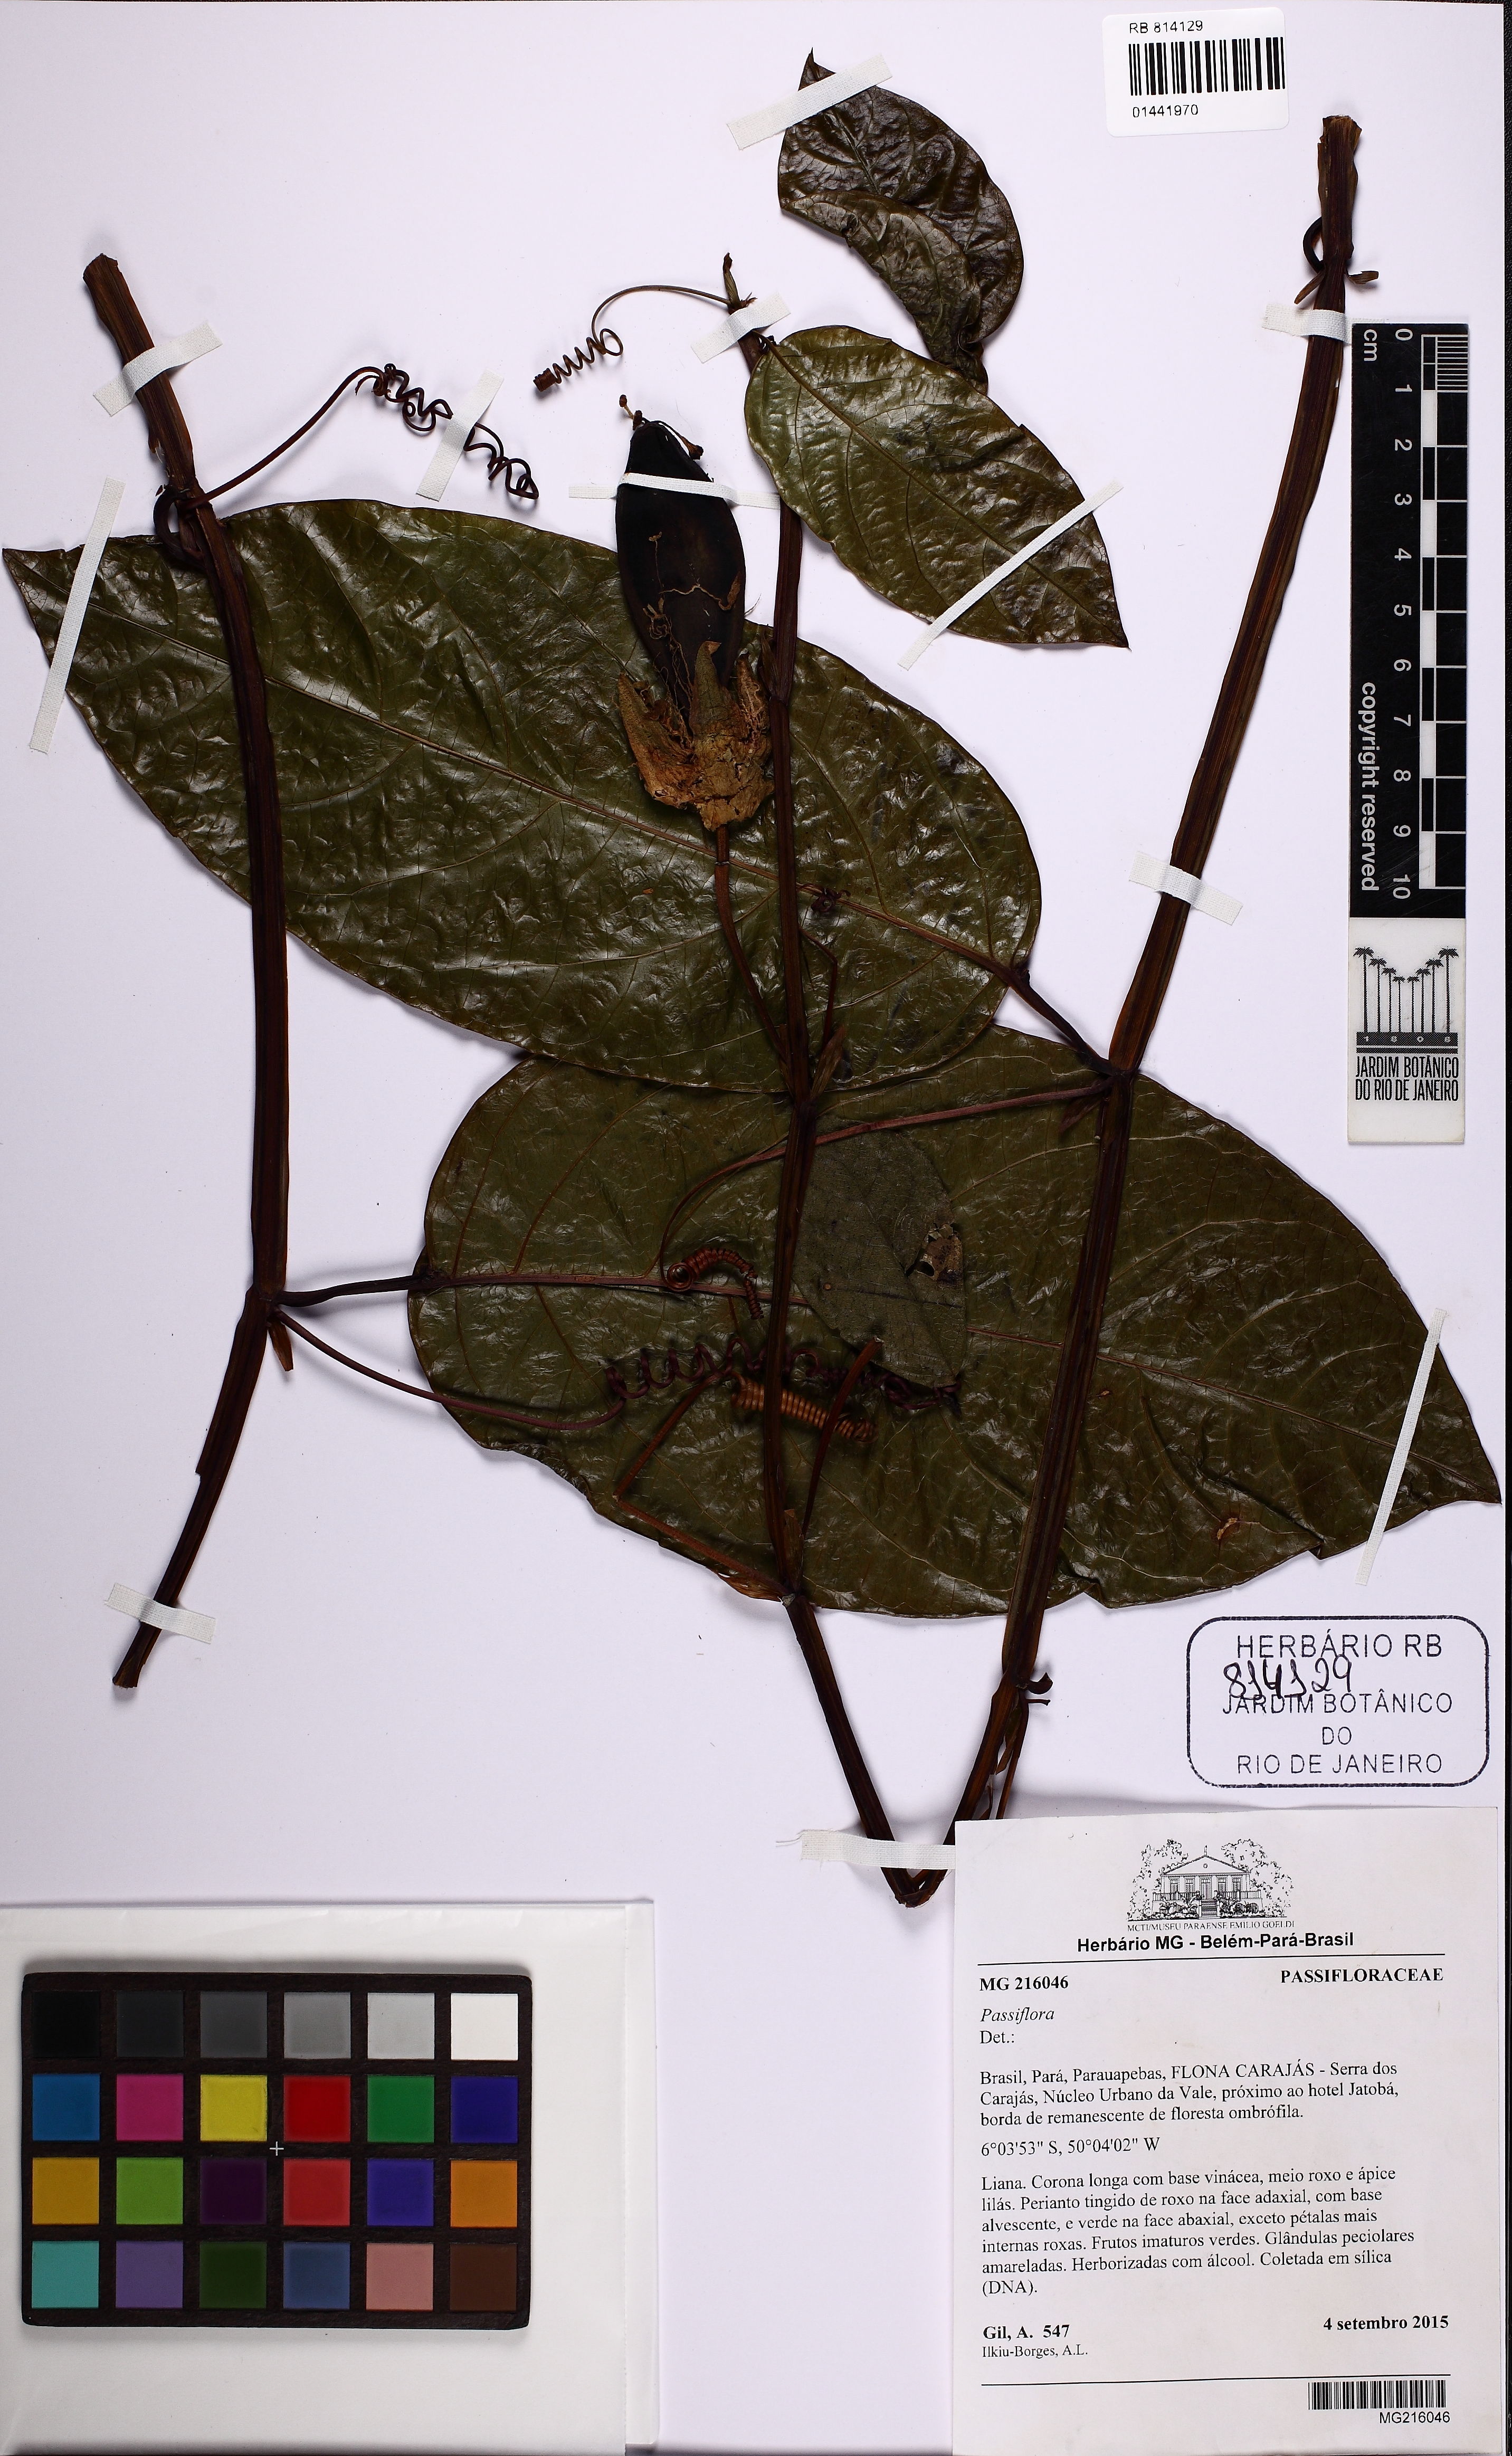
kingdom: Plantae
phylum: Tracheophyta
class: Magnoliopsida
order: Malpighiales
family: Passifloraceae
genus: Passiflora
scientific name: Passiflora
